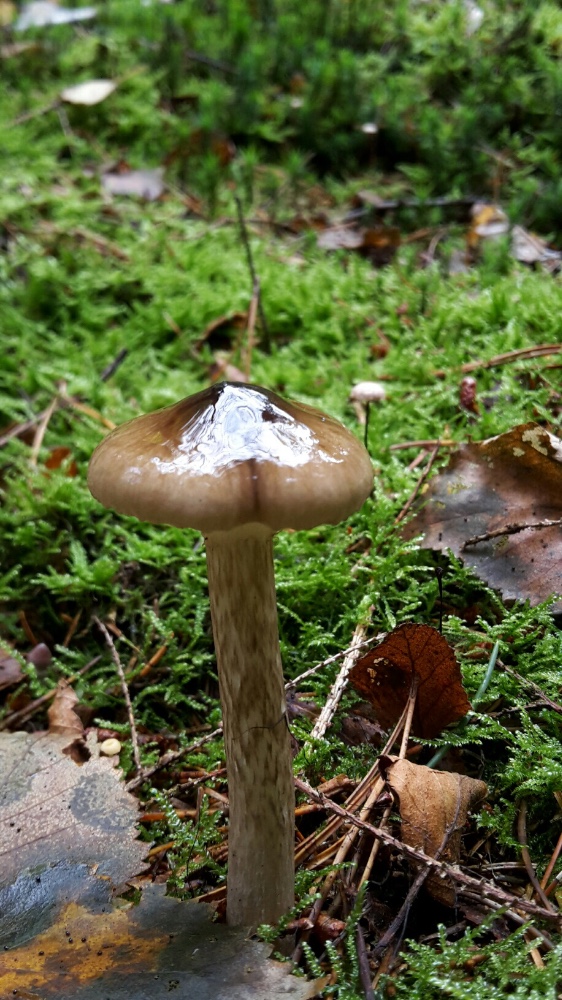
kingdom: Fungi
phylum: Basidiomycota
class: Agaricomycetes
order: Agaricales
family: Hygrophoraceae
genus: Hygrophorus
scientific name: Hygrophorus olivaceoalbus
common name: hvidbrun sneglehat
